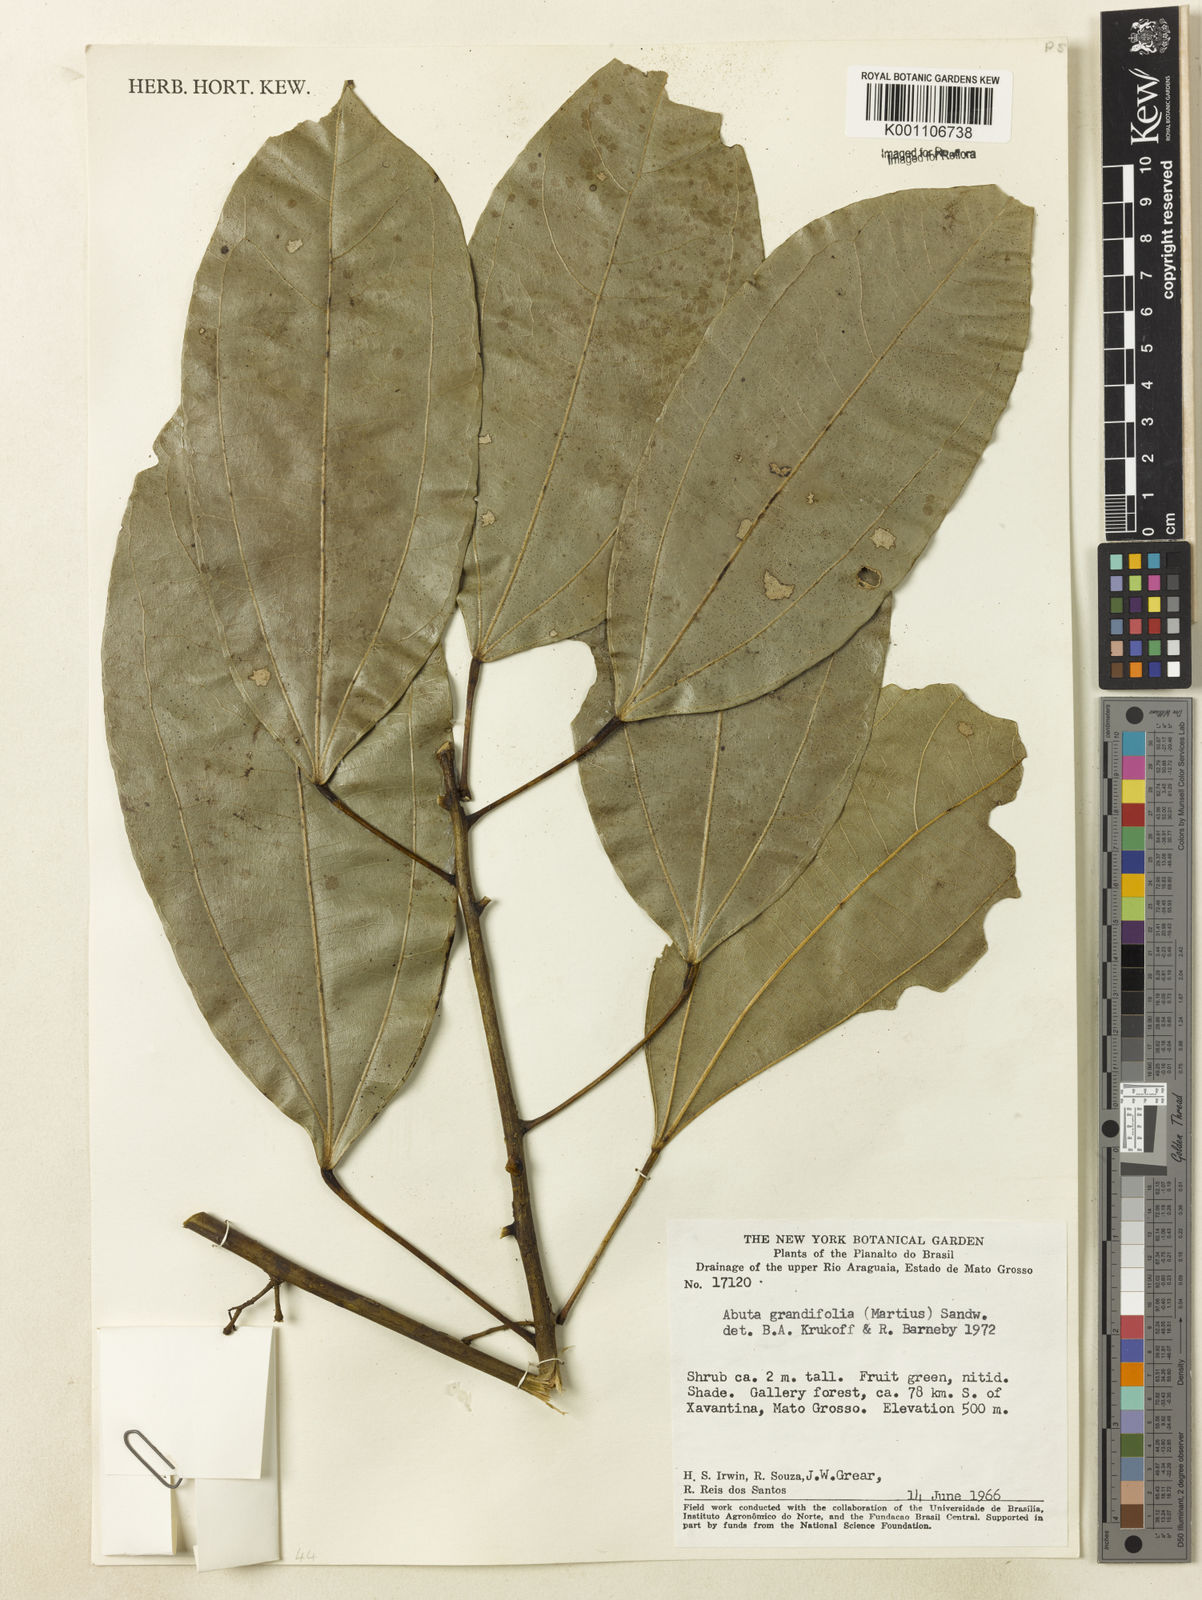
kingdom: Plantae
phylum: Tracheophyta
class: Magnoliopsida
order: Ranunculales
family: Menispermaceae
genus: Abuta
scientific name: Abuta grandifolia
